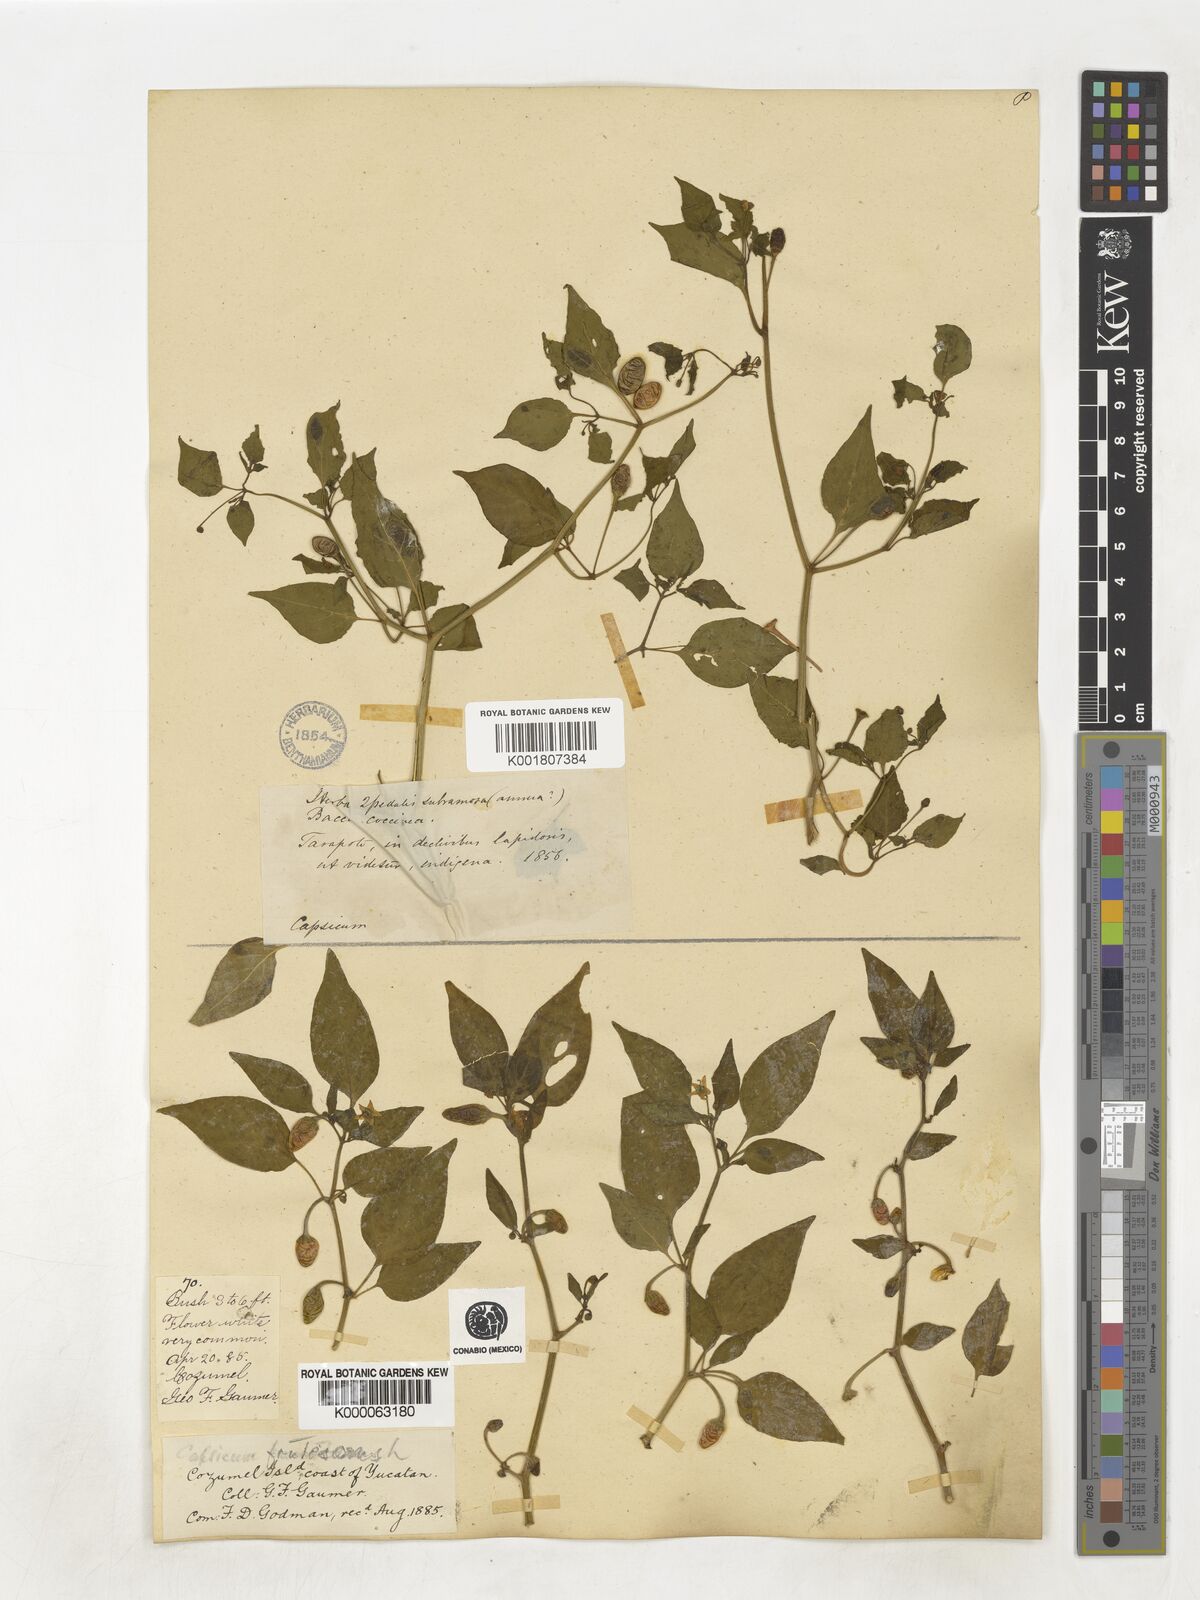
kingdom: Plantae
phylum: Tracheophyta
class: Magnoliopsida
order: Solanales
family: Solanaceae
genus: Capsicum
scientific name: Capsicum frutescens
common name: Bird pepper
